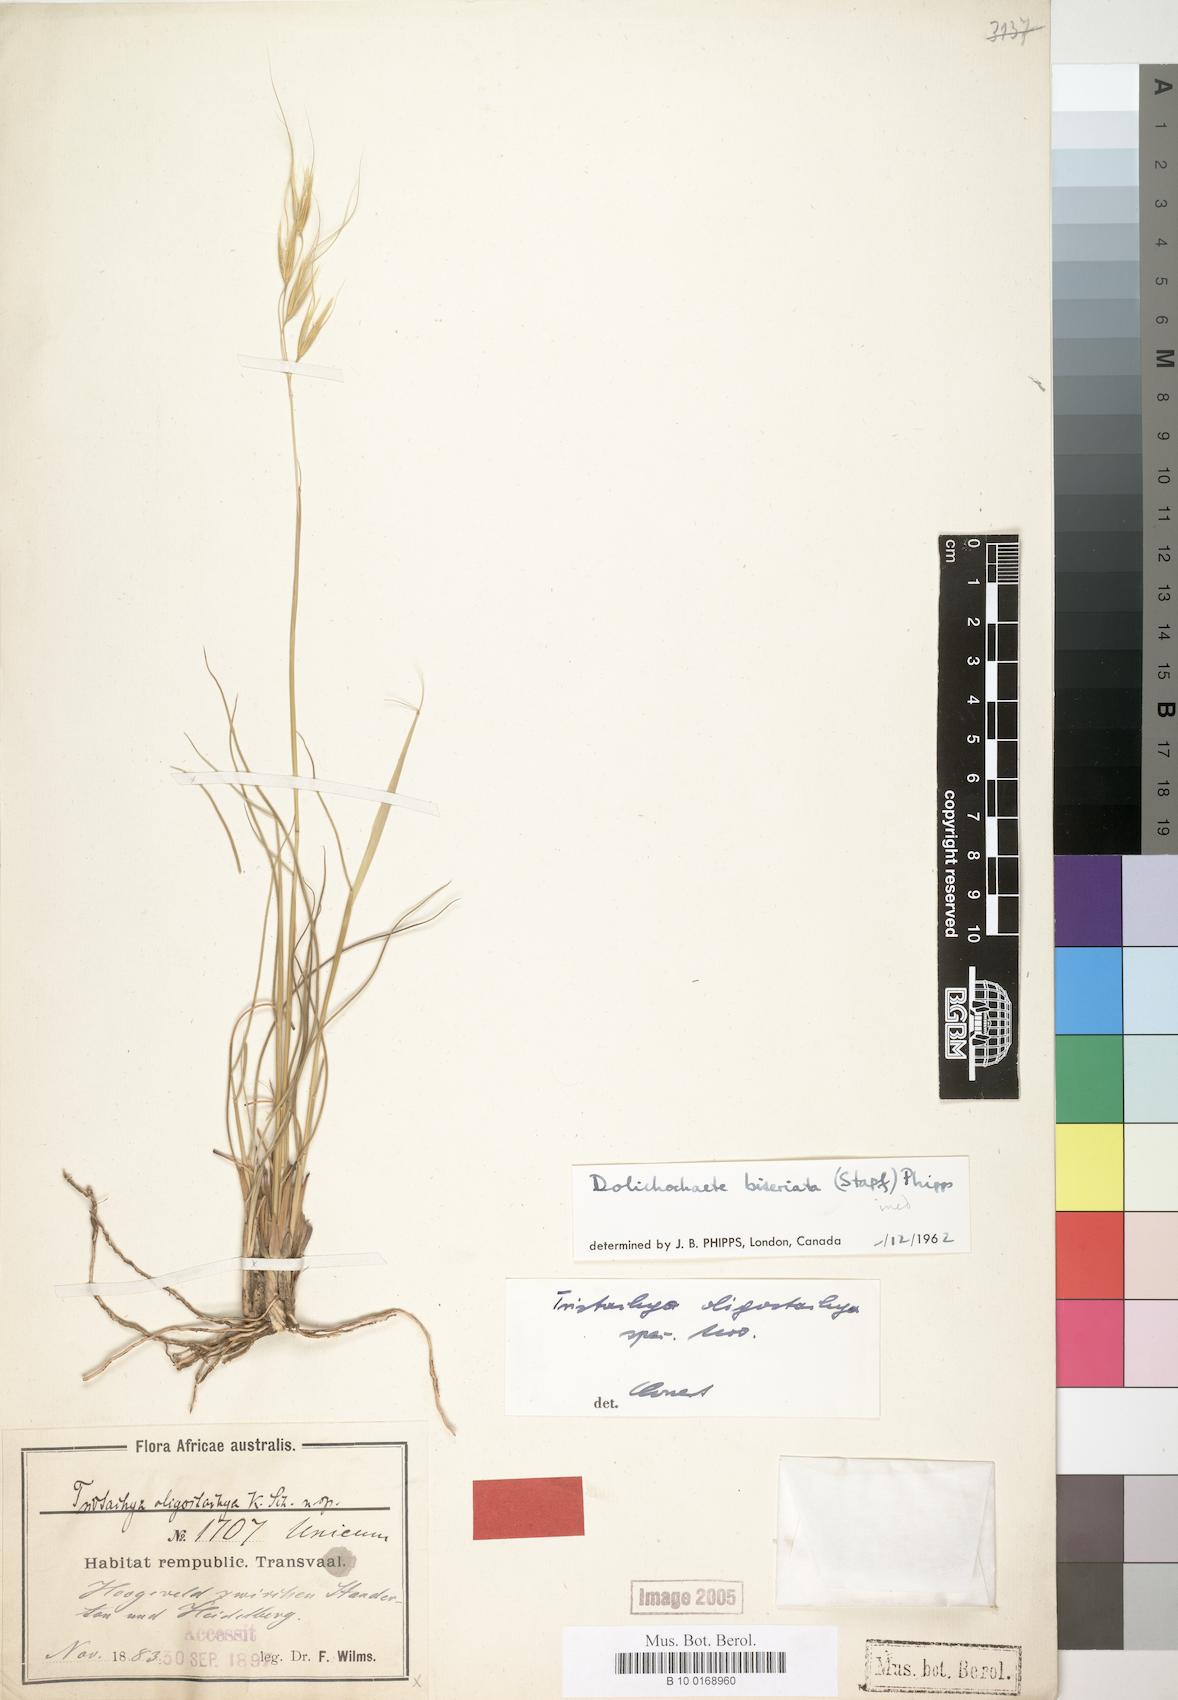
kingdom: Plantae
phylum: Tracheophyta
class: Liliopsida
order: Poales
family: Poaceae
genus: Tristachya
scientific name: Tristachya biseriata
